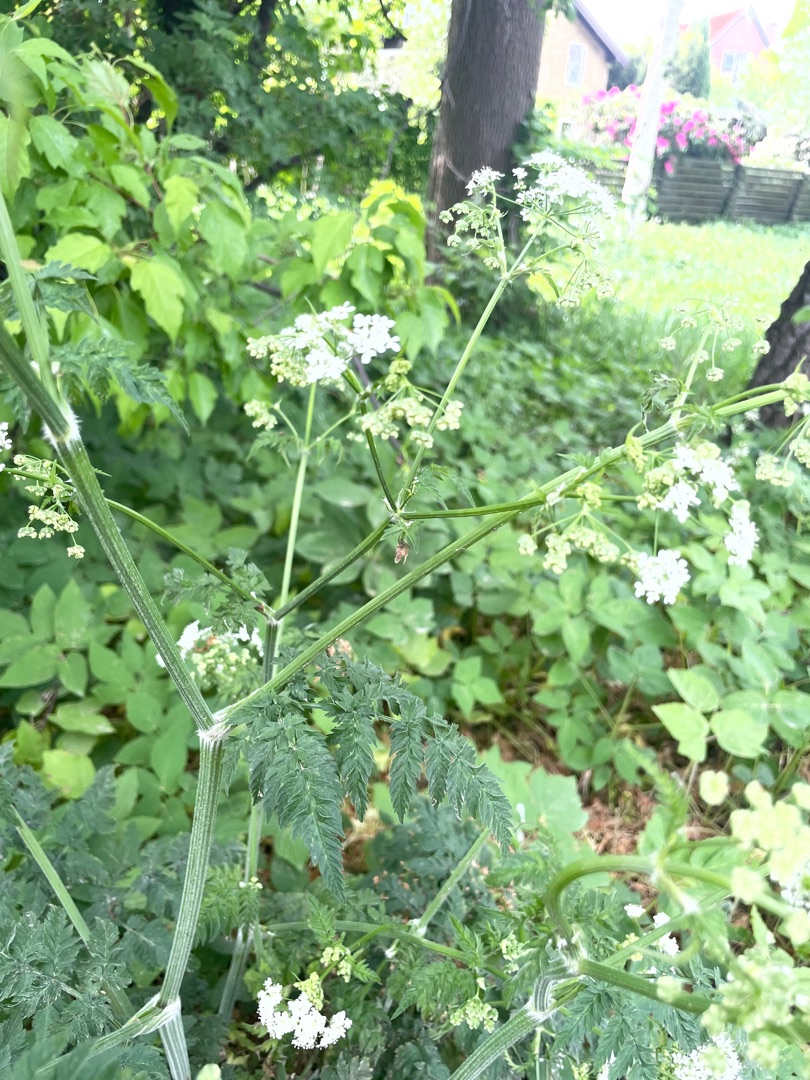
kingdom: Plantae
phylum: Tracheophyta
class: Magnoliopsida
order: Apiales
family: Apiaceae
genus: Anthriscus
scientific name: Anthriscus sylvestris
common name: Vild kørvel
